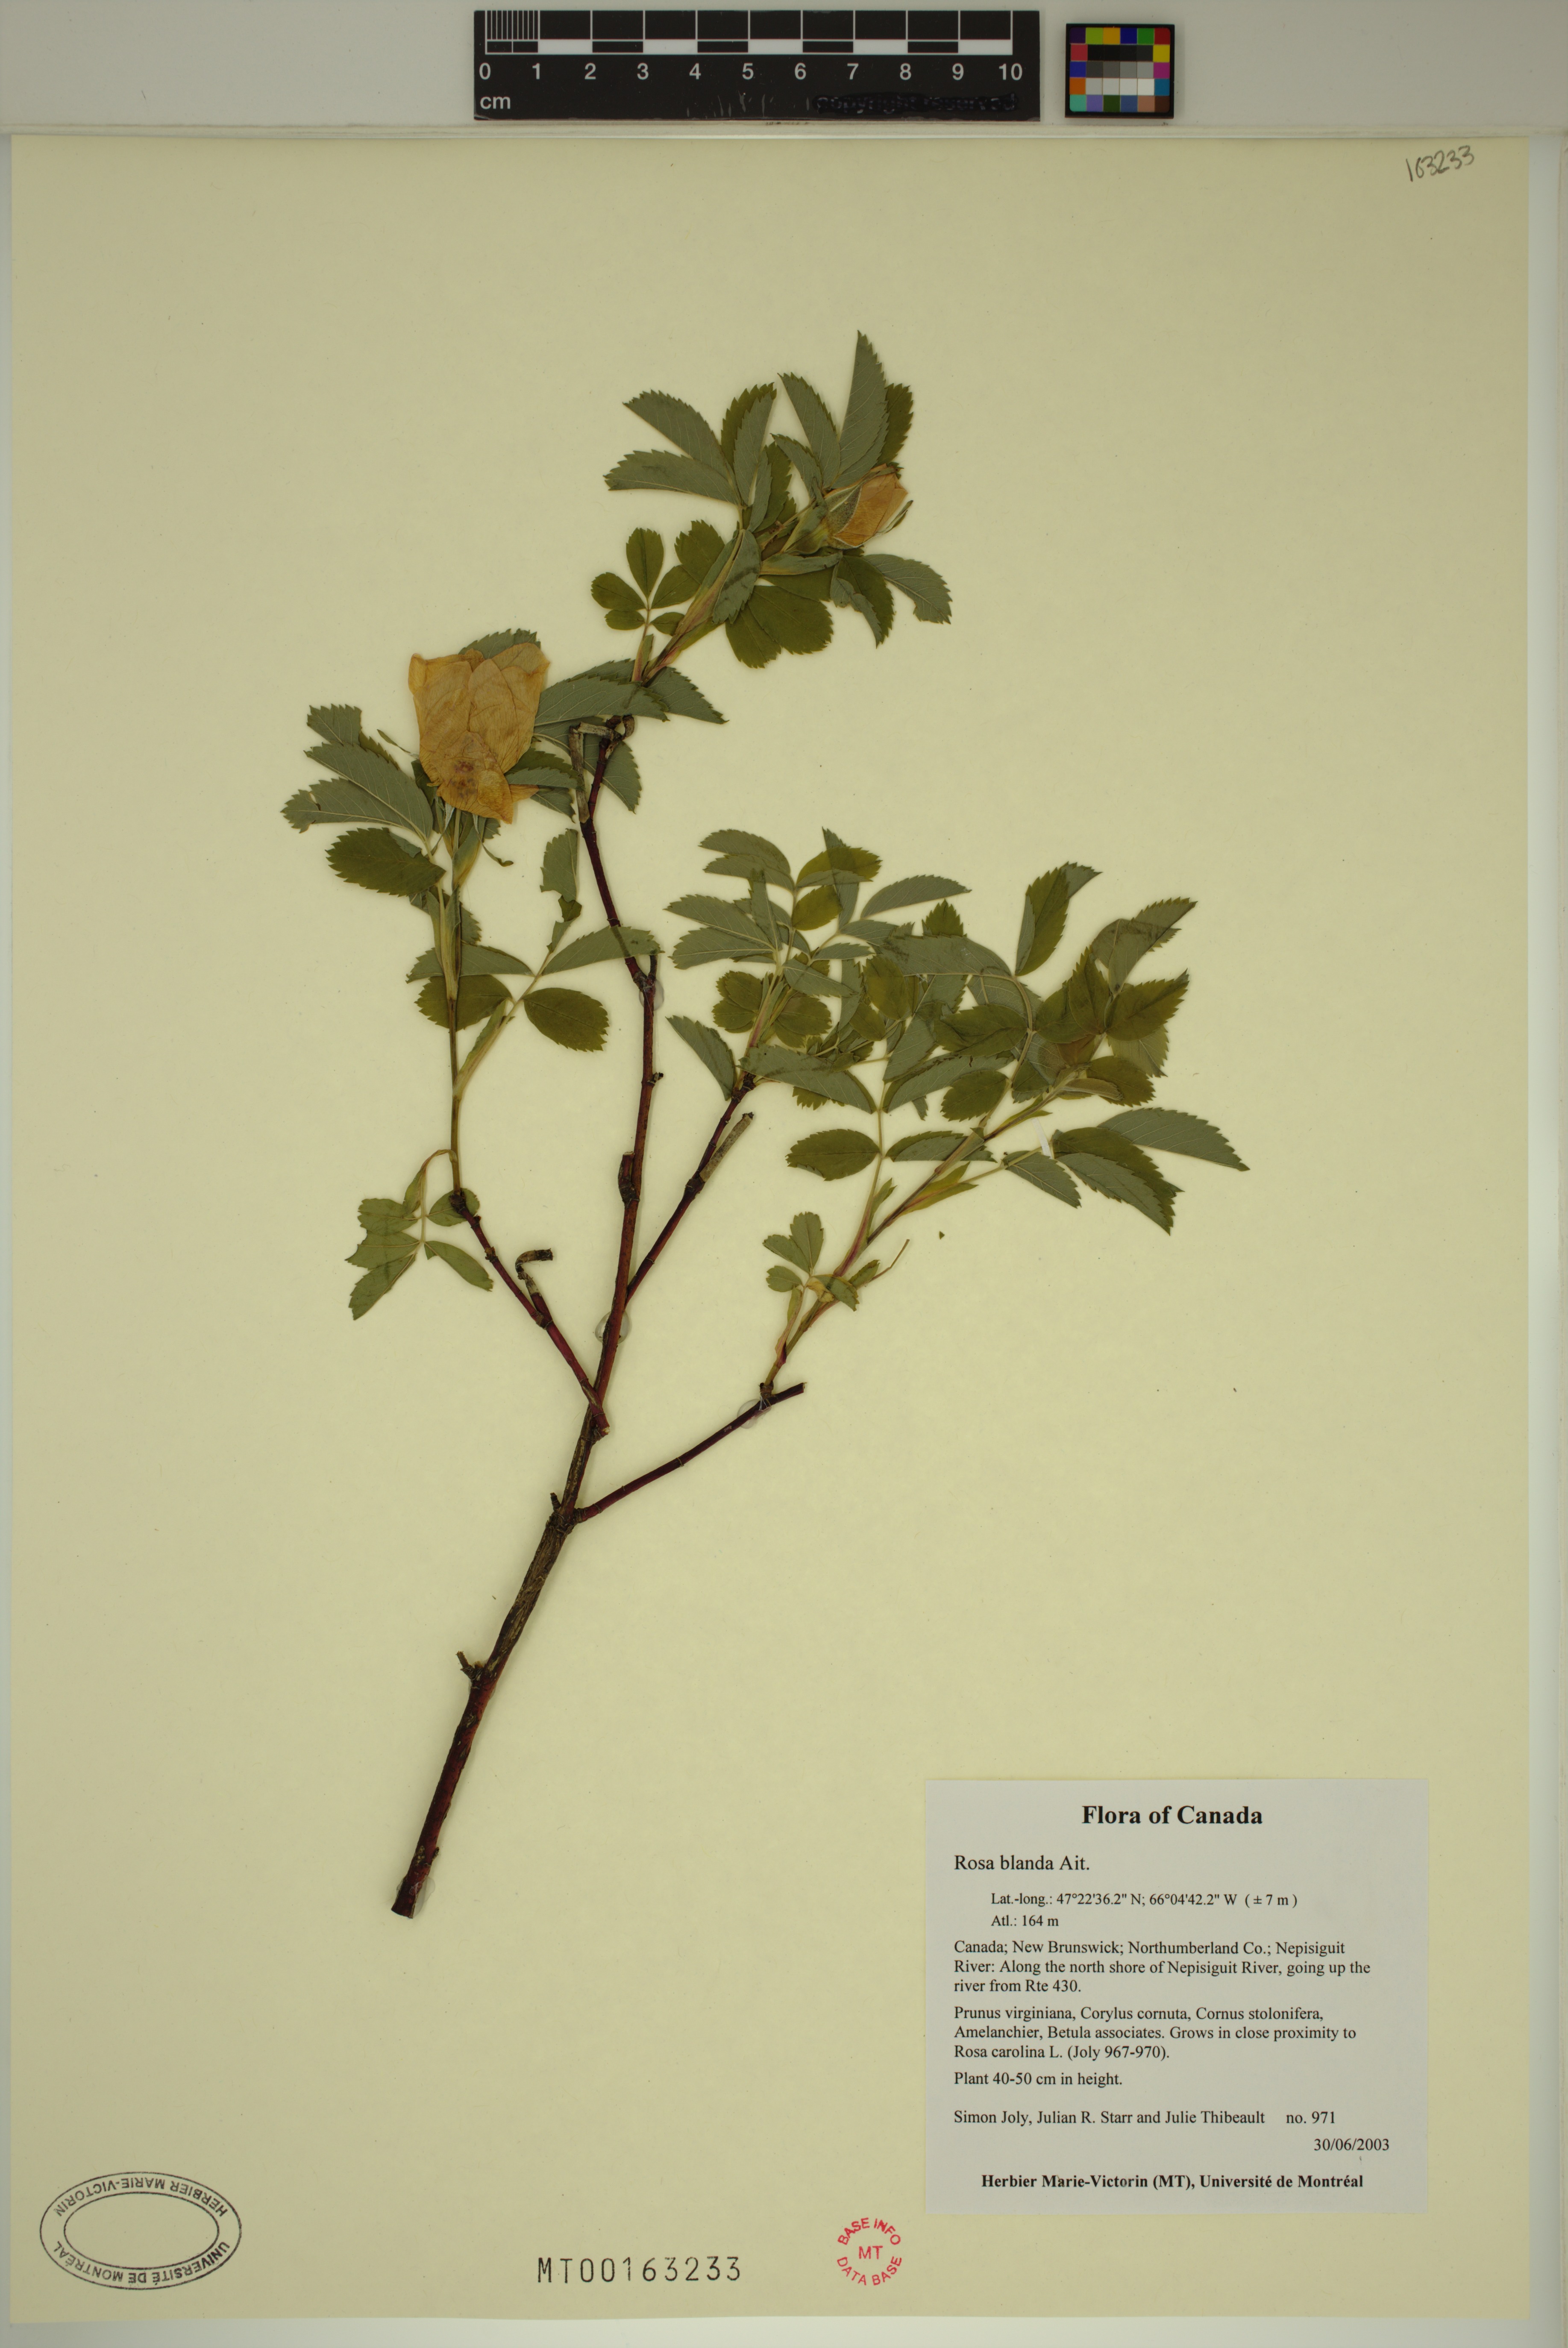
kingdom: Plantae
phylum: Tracheophyta
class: Magnoliopsida
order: Rosales
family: Rosaceae
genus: Rosa
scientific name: Rosa blanda
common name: Smooth rose
